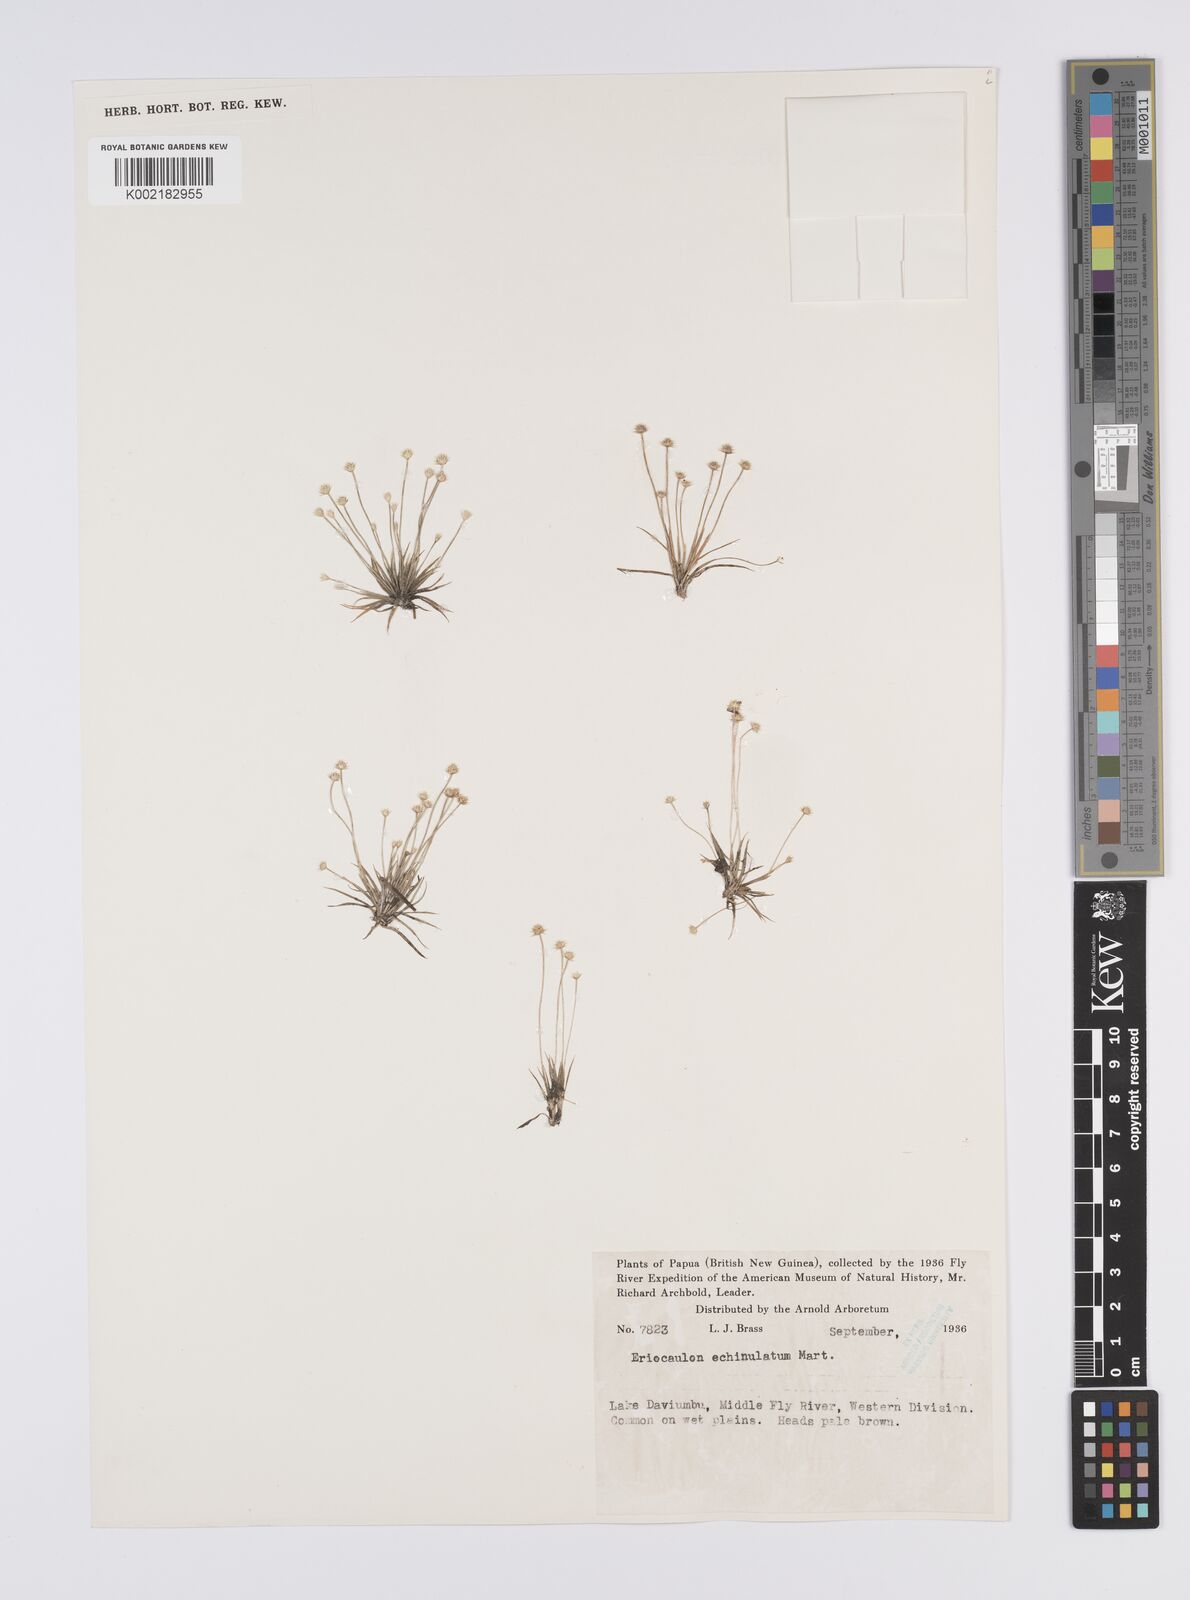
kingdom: Plantae
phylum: Tracheophyta
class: Liliopsida
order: Poales
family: Eriocaulaceae
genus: Eriocaulon
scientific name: Eriocaulon echinulatum
